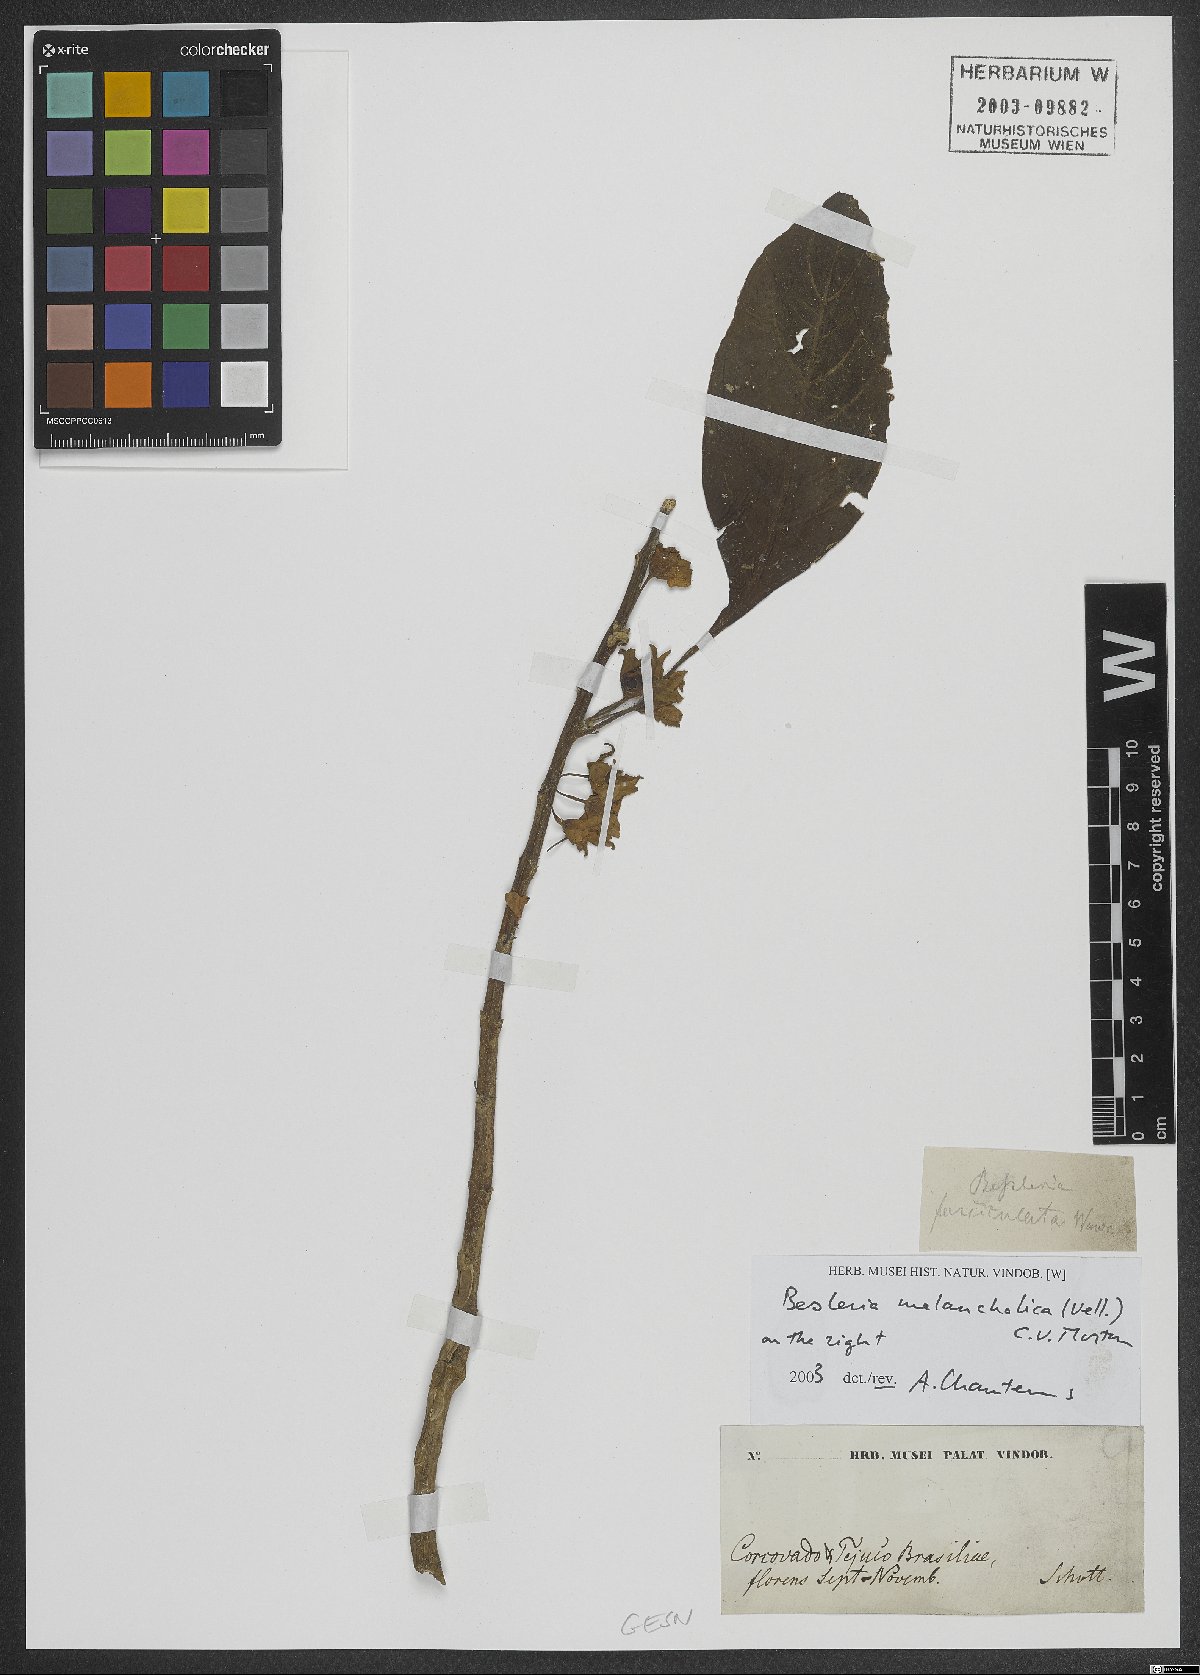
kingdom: Plantae
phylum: Tracheophyta
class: Magnoliopsida
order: Lamiales
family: Gesneriaceae
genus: Besleria
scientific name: Besleria melancholica
